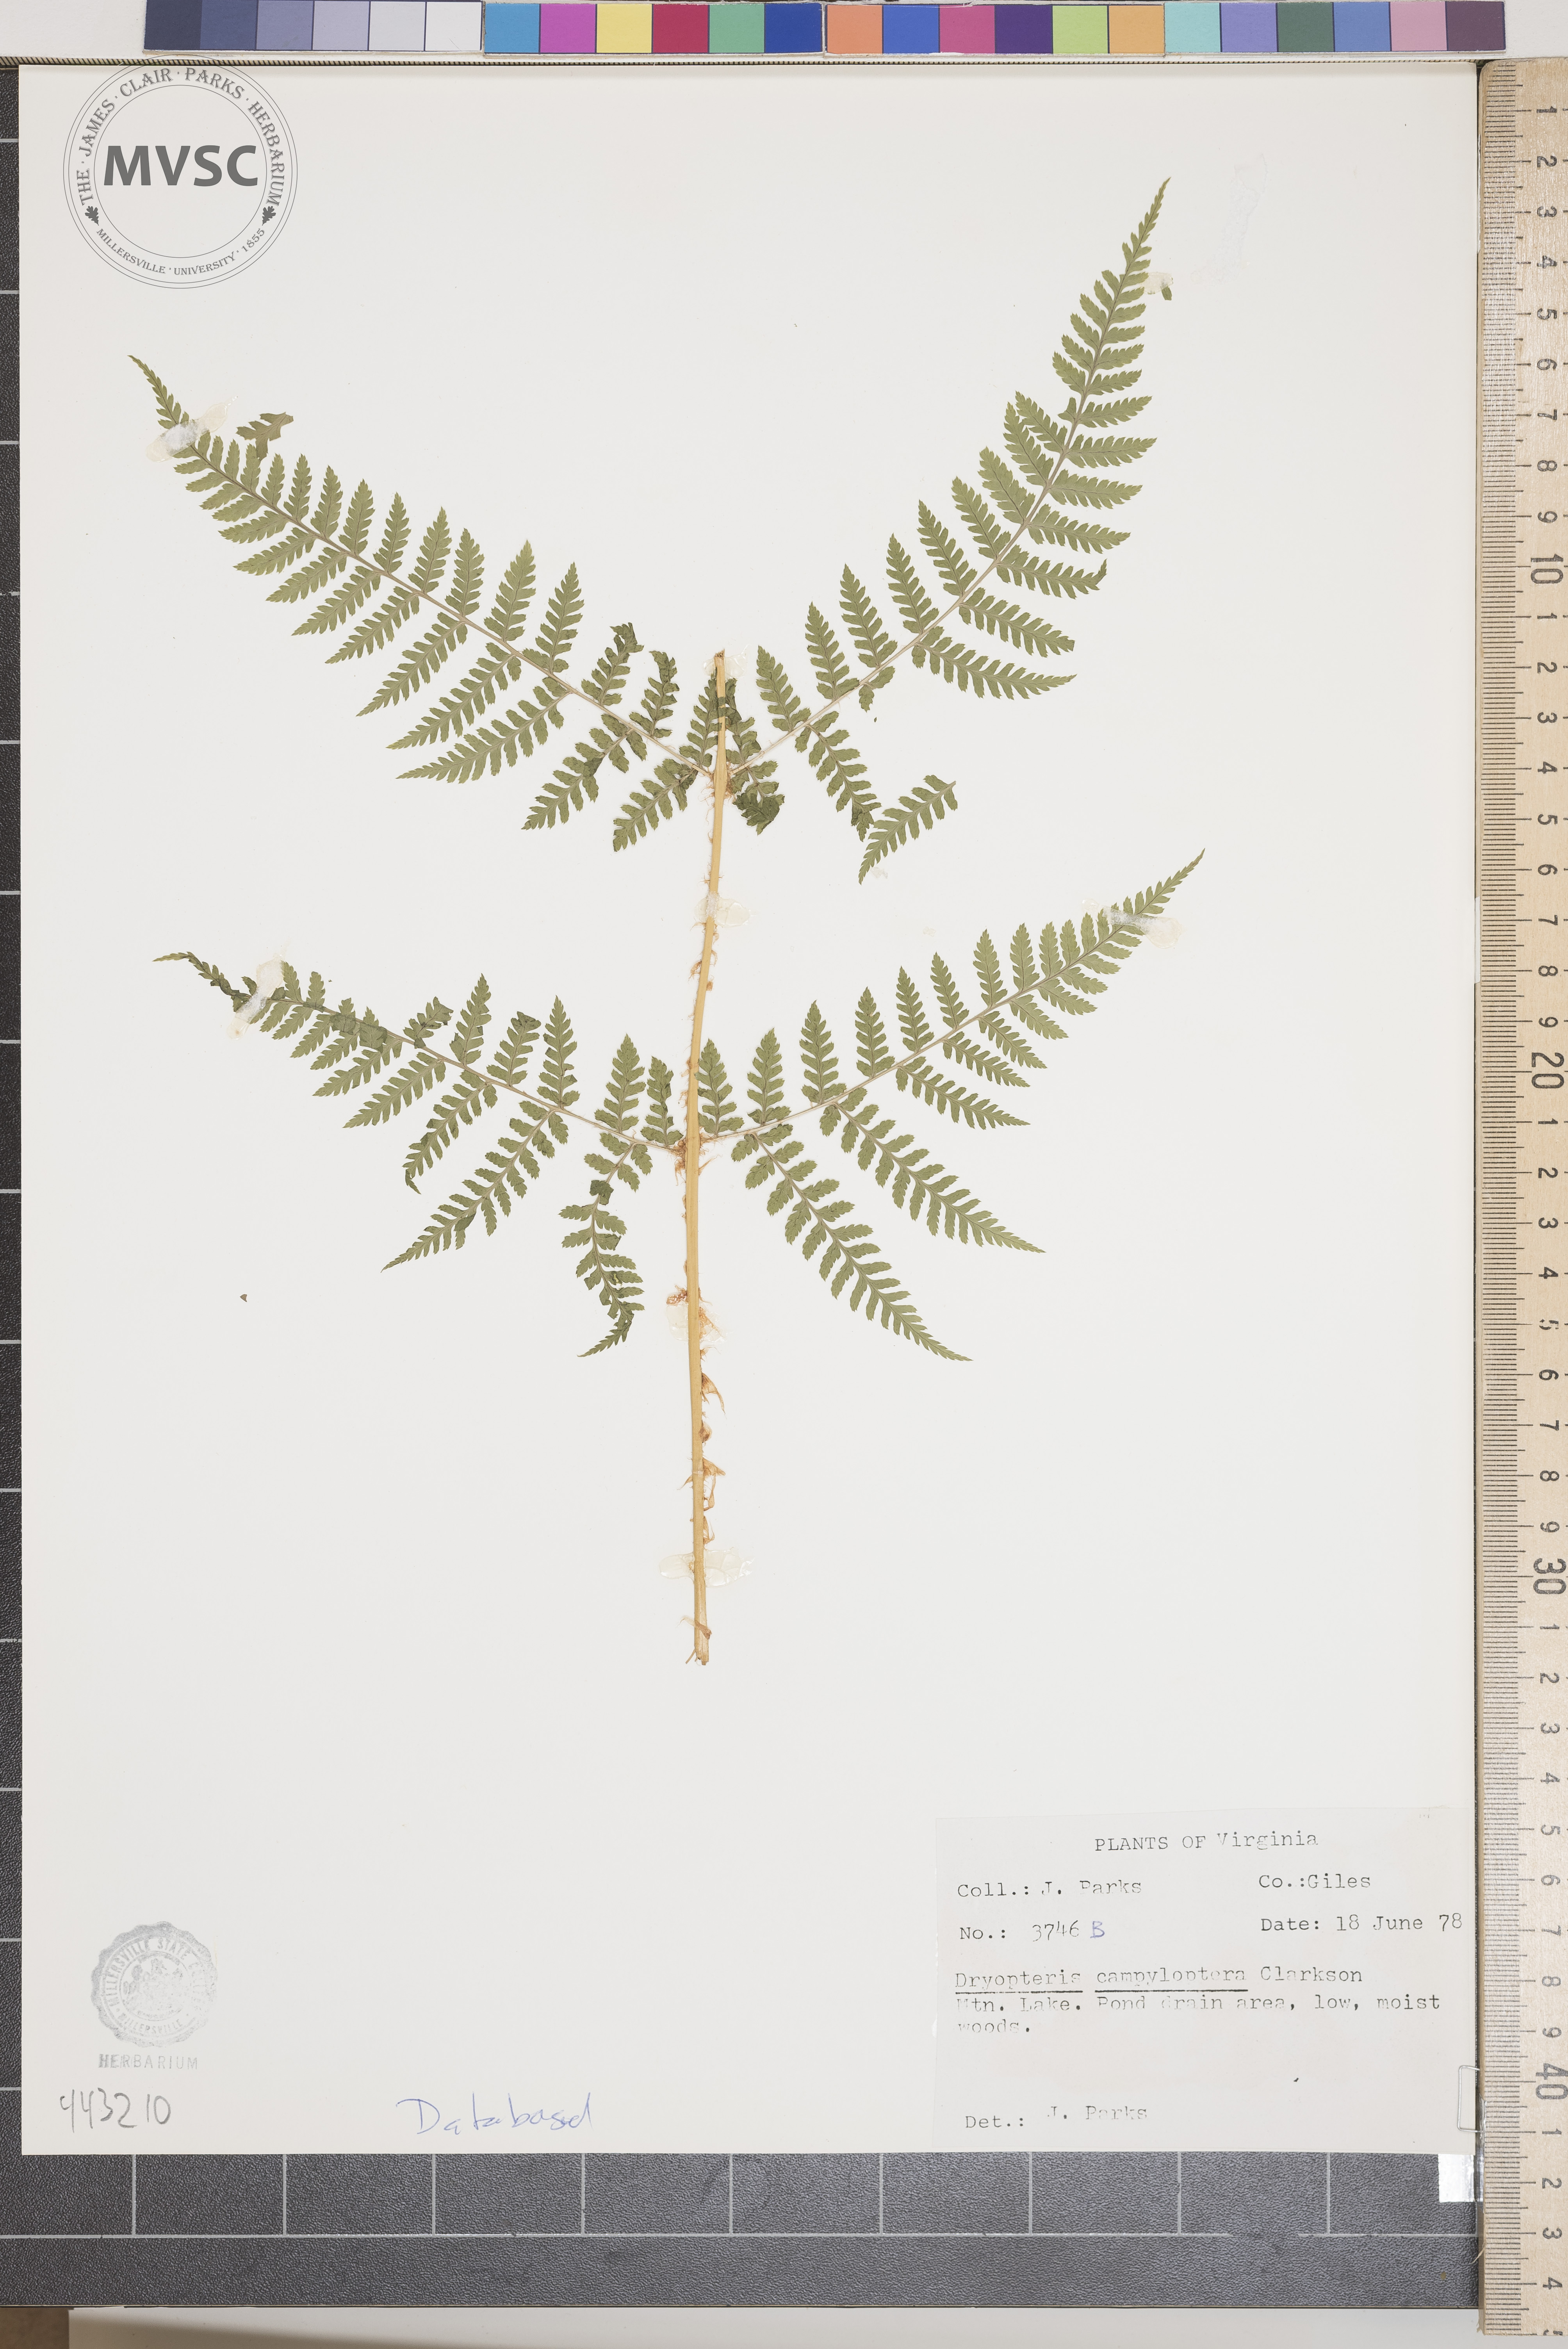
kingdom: Plantae
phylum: Tracheophyta
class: Polypodiopsida
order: Polypodiales
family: Dryopteridaceae
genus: Dryopteris
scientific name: Dryopteris campyloptera
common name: Mountain wood fern
